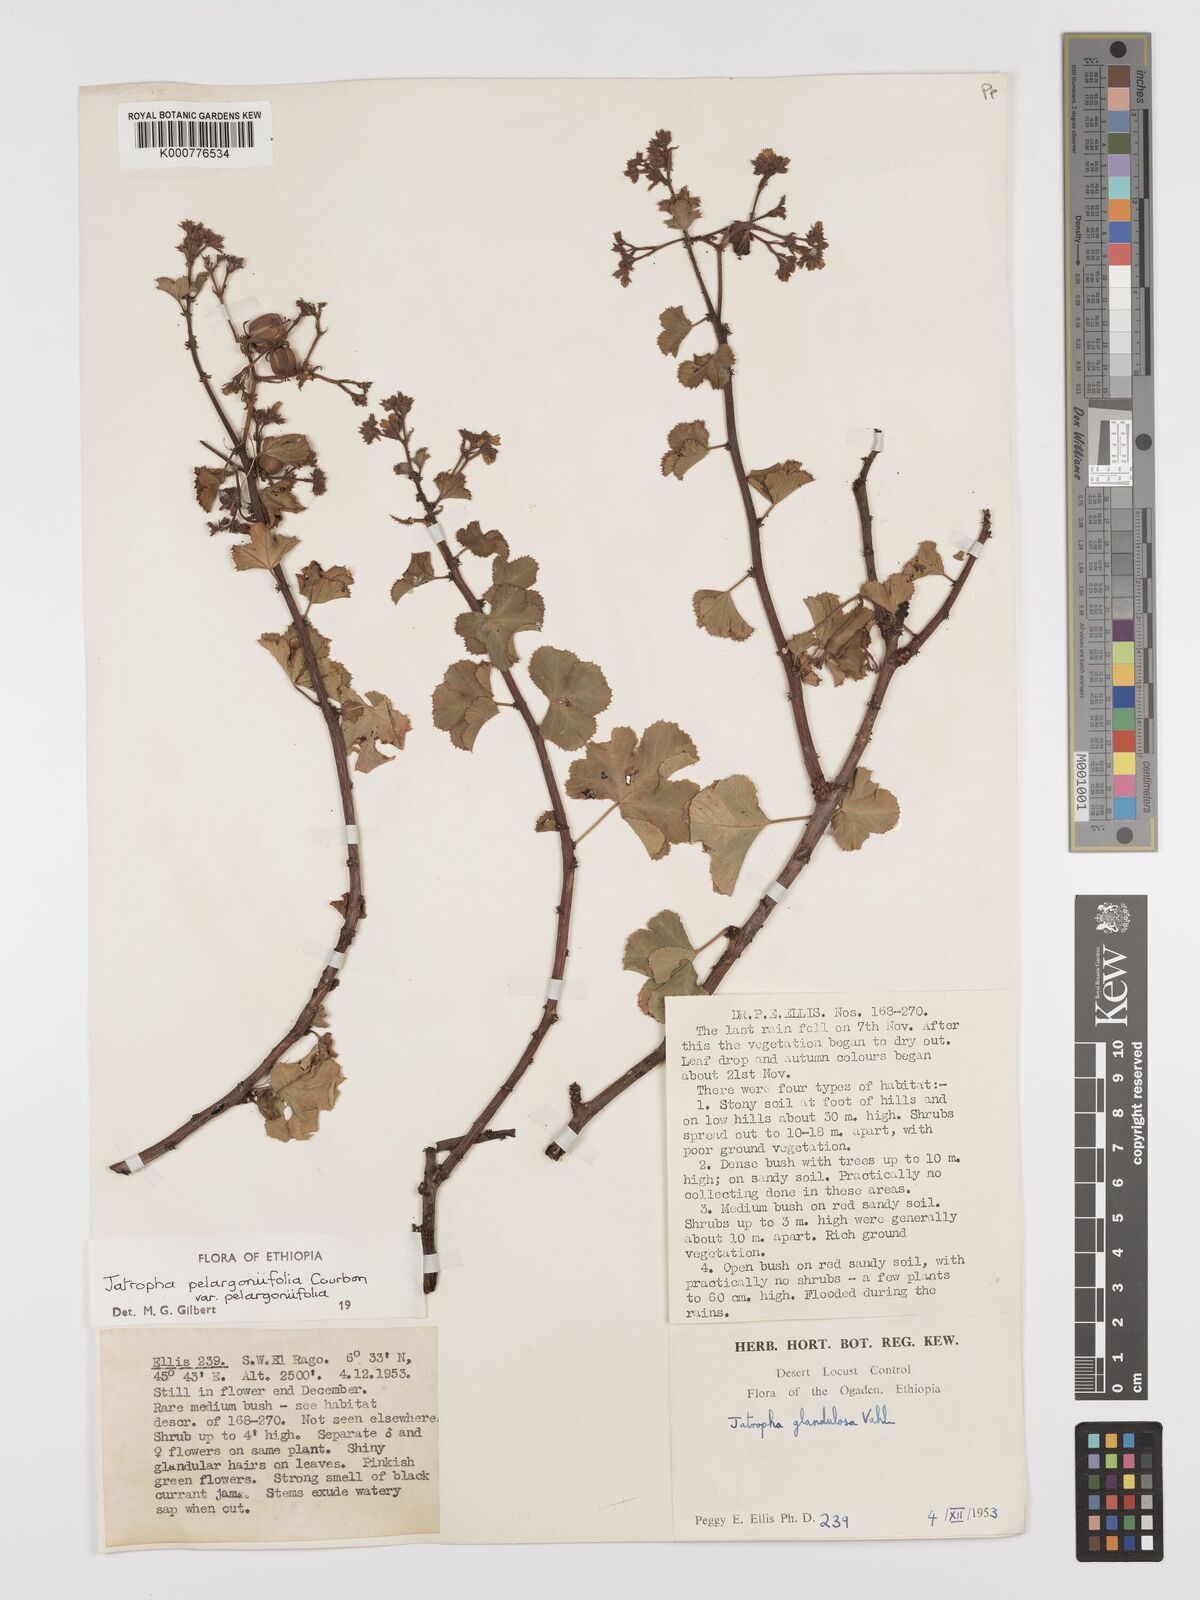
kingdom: Plantae
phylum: Tracheophyta
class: Magnoliopsida
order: Malpighiales
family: Euphorbiaceae
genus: Jatropha
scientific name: Jatropha pelargoniifolia
